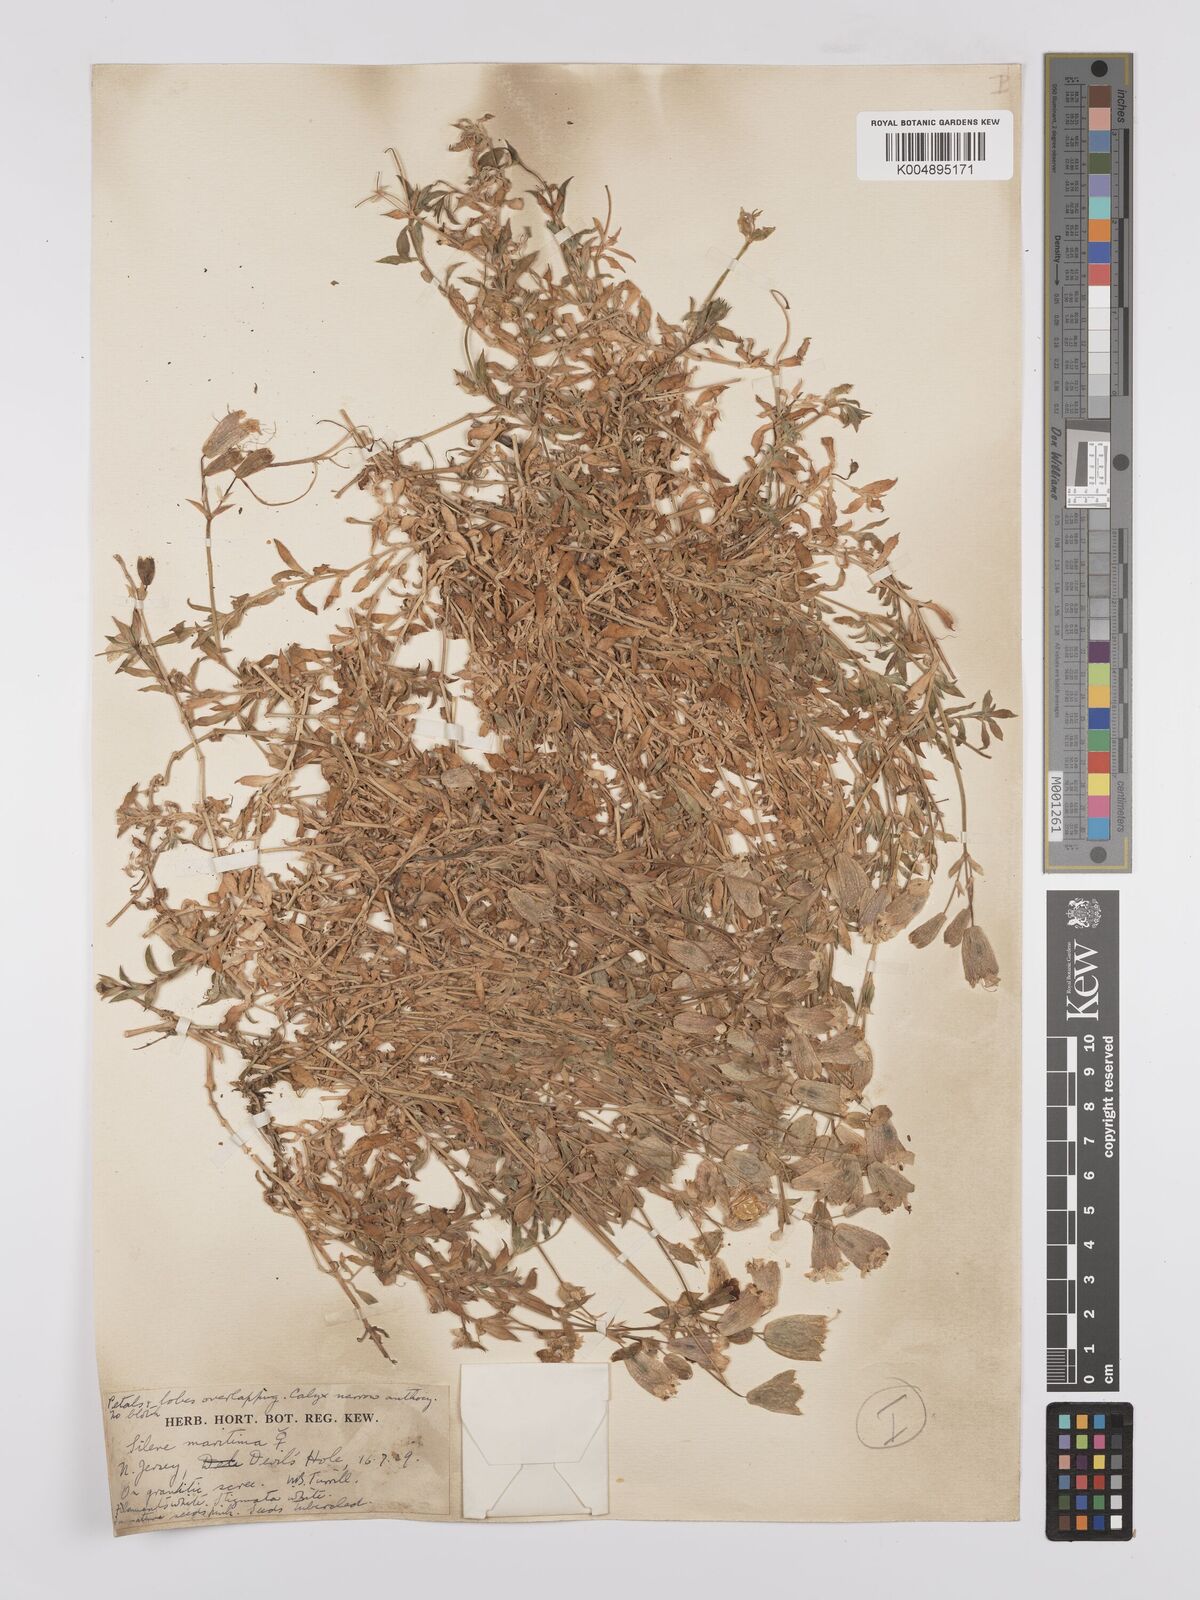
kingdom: Plantae
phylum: Tracheophyta
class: Magnoliopsida
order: Caryophyllales
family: Caryophyllaceae
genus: Silene
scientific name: Silene uniflora
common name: Sea campion
